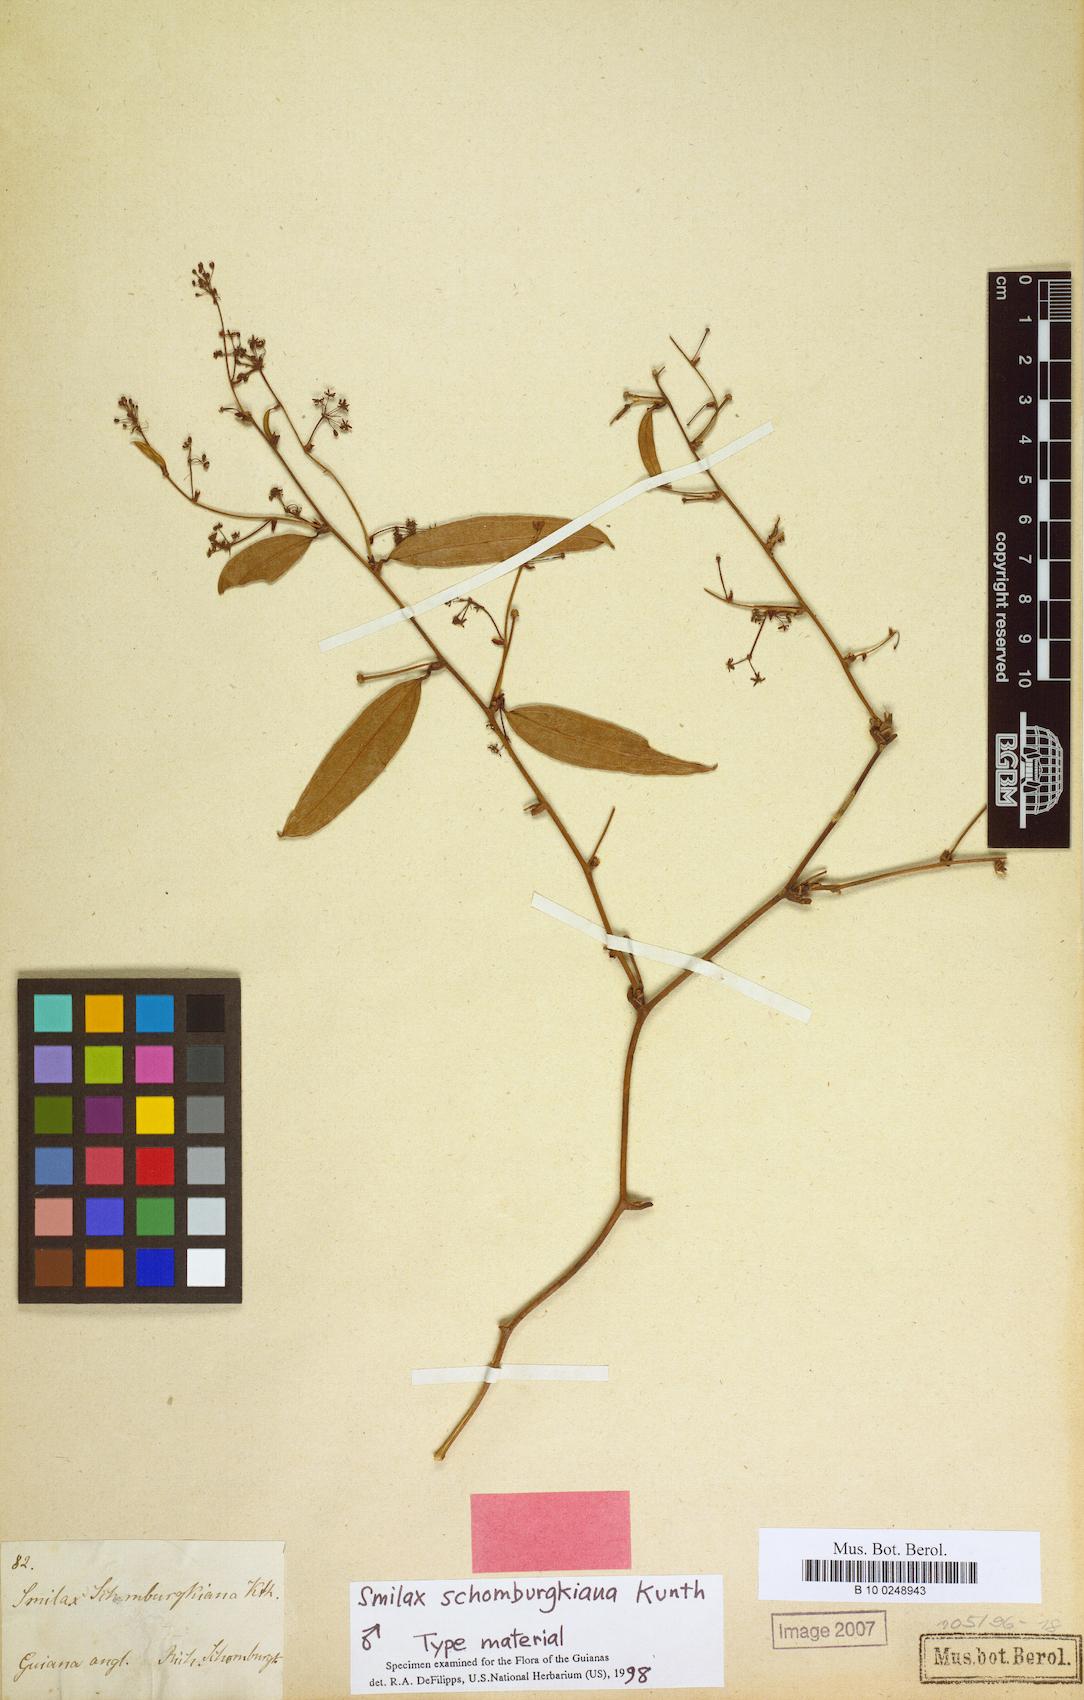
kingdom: Plantae
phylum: Tracheophyta
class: Liliopsida
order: Liliales
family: Smilacaceae
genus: Smilax
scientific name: Smilax schomburgkiana
